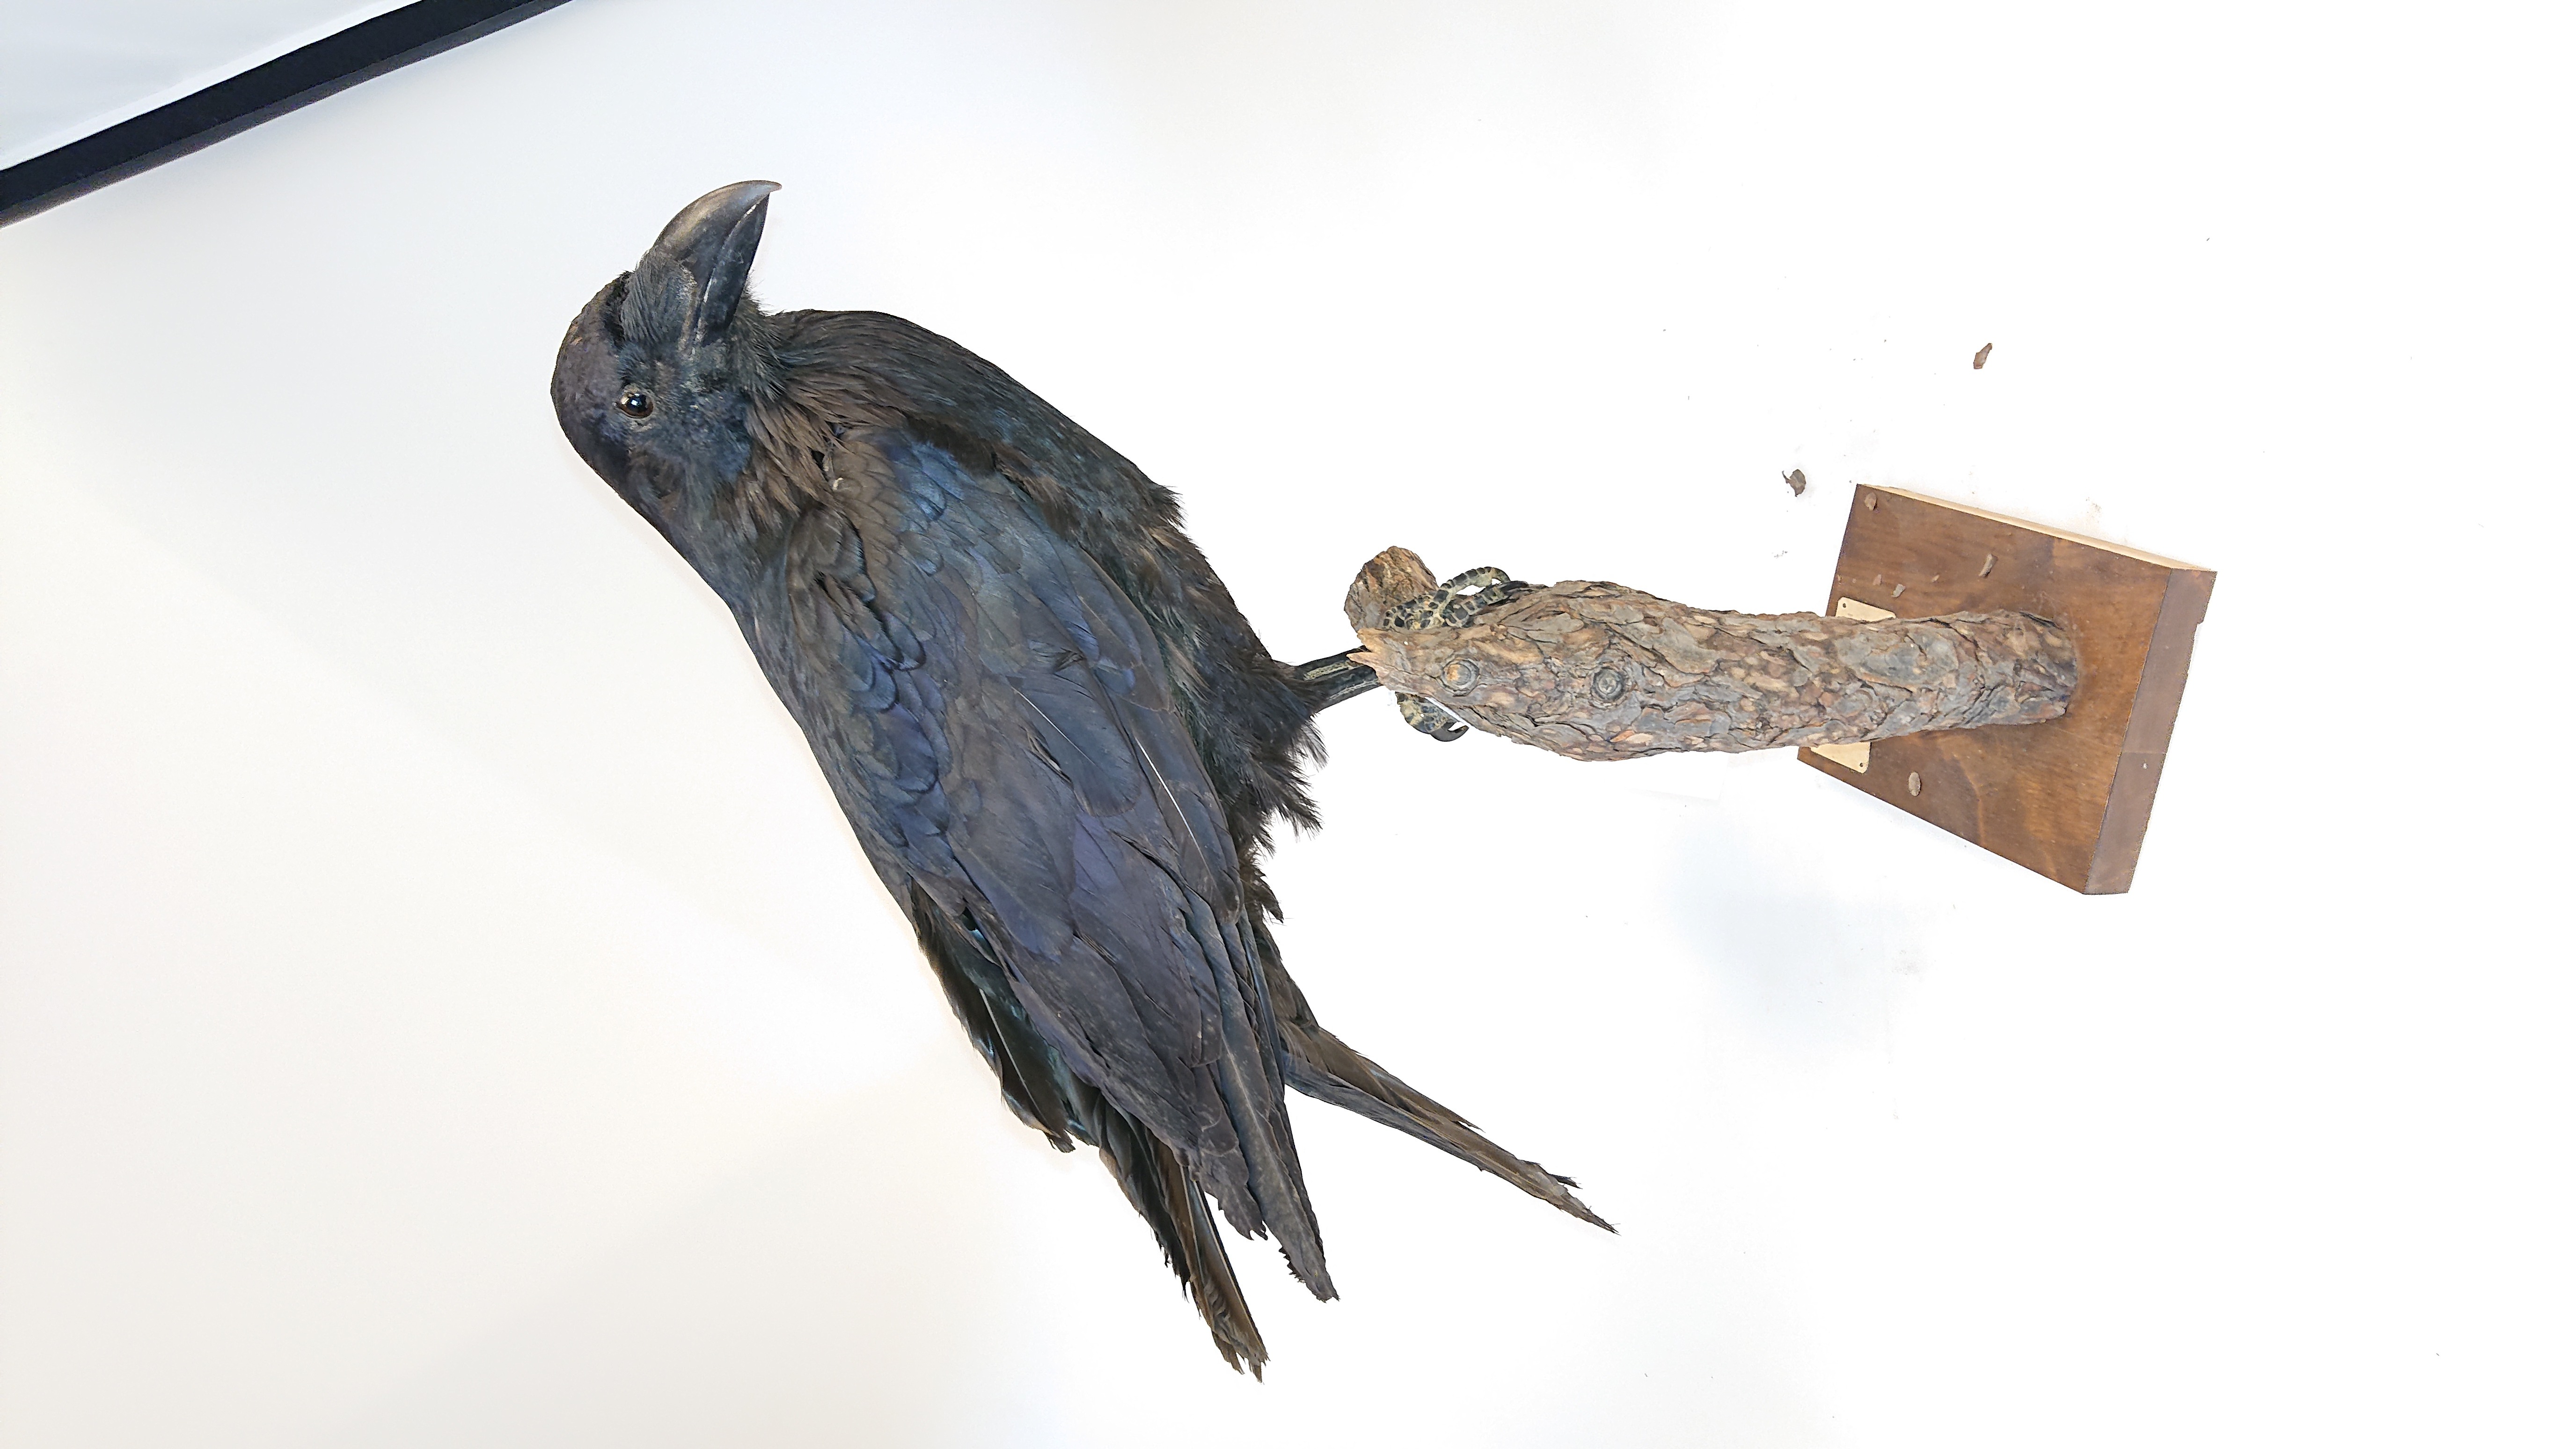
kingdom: Animalia
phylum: Chordata
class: Aves
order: Passeriformes
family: Corvidae
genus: Corvus
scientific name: Corvus corax
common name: Common raven
